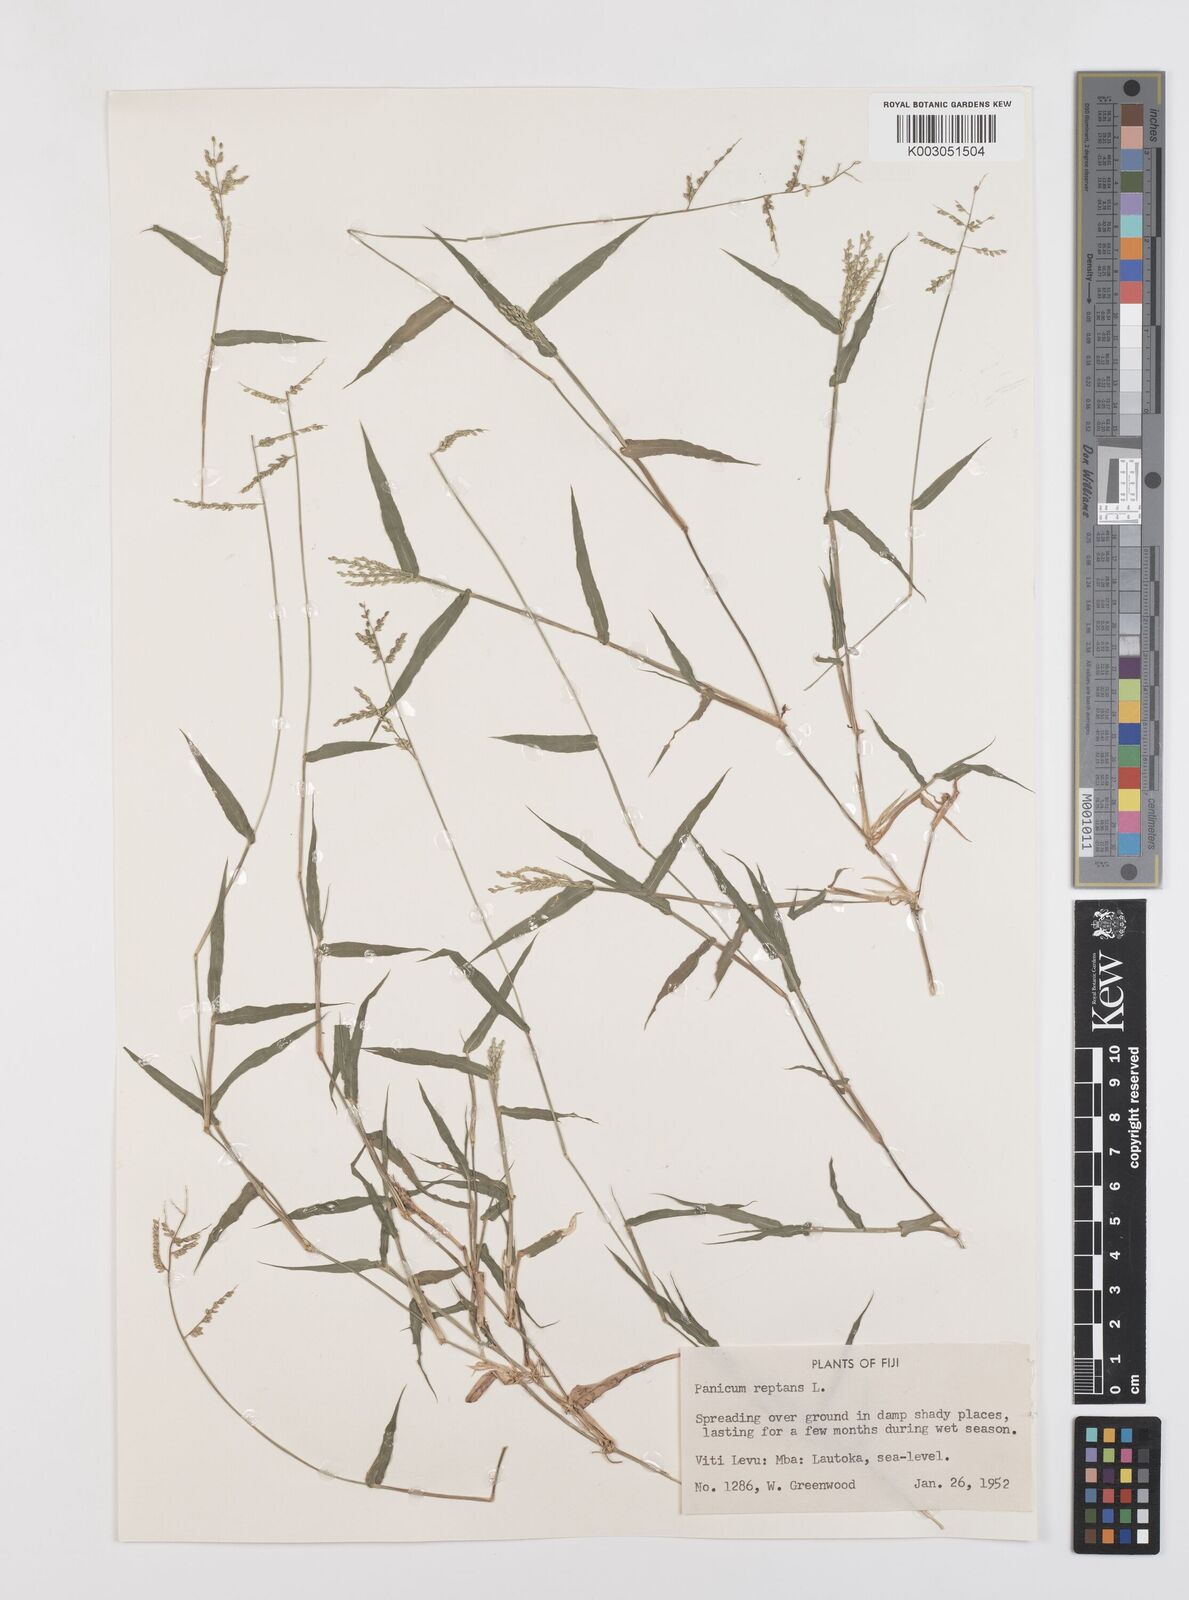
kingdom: Plantae
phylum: Tracheophyta
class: Liliopsida
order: Poales
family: Poaceae
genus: Urochloa
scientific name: Urochloa reptans
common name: Sprawling signalgrass
